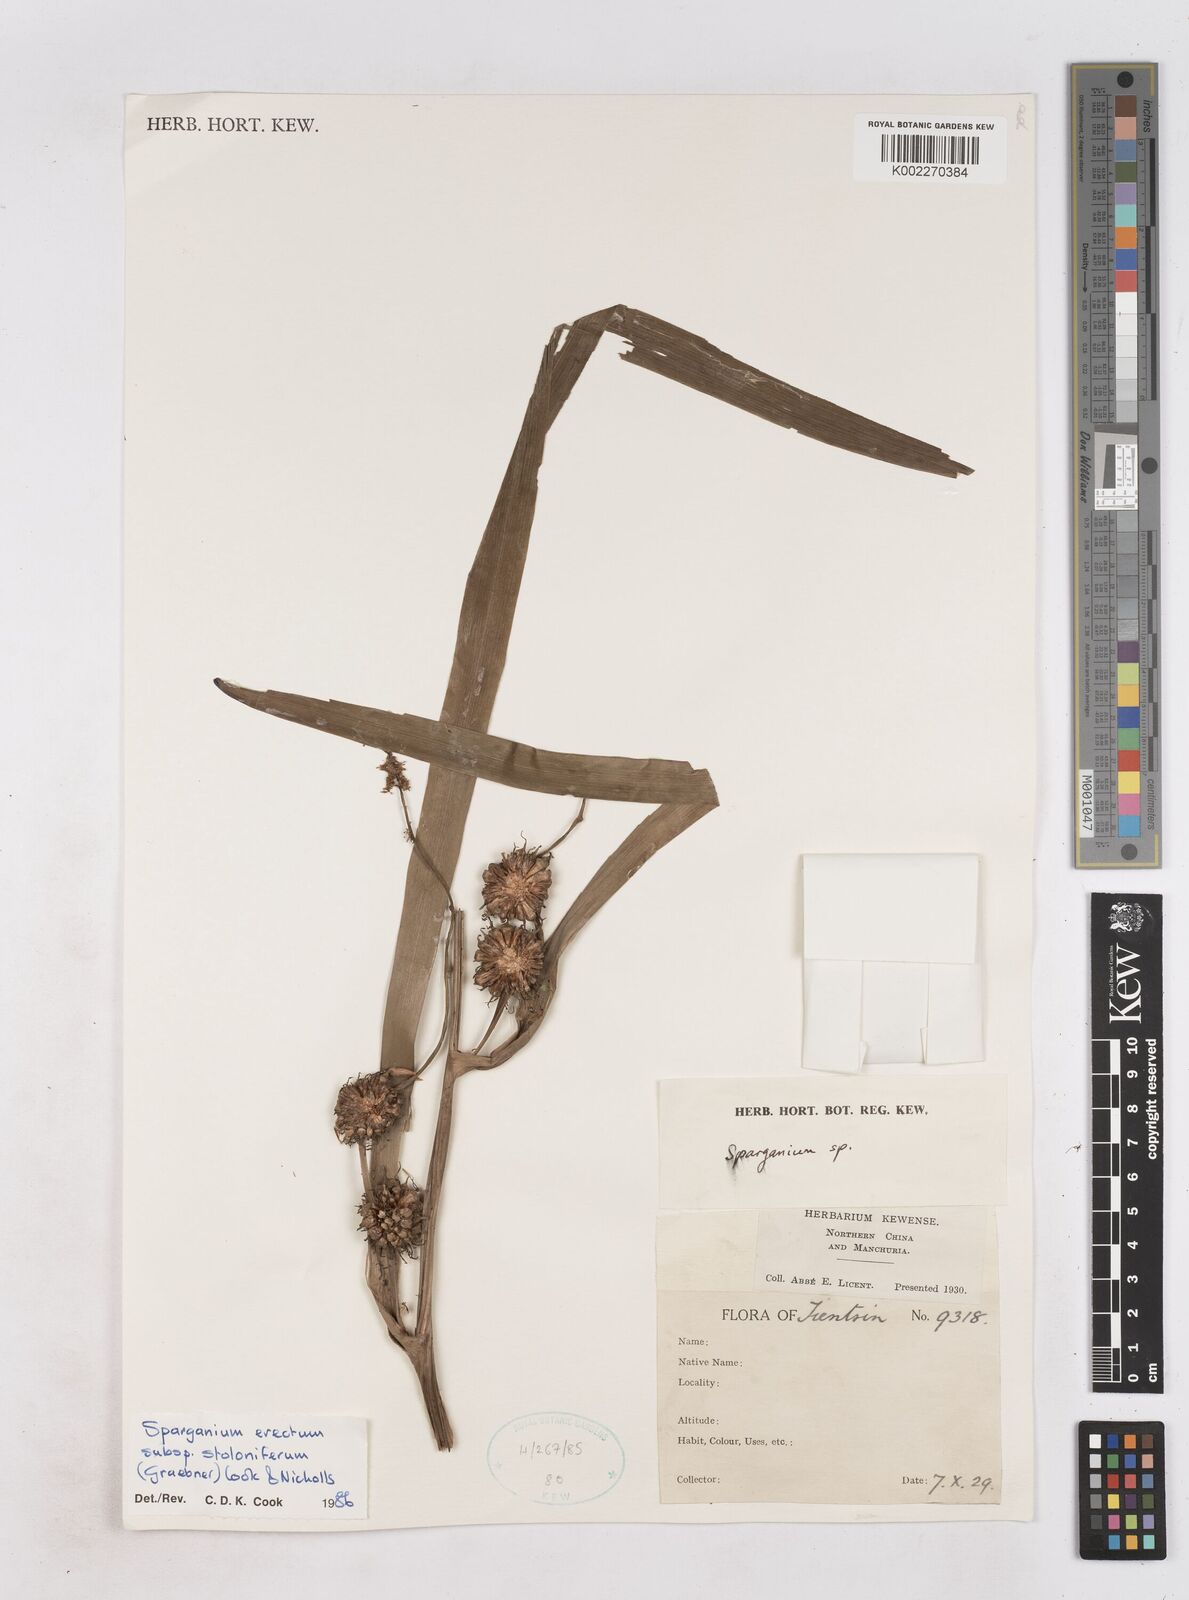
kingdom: Plantae
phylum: Tracheophyta
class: Liliopsida
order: Poales
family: Typhaceae
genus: Sparganium
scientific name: Sparganium stoloniferum
